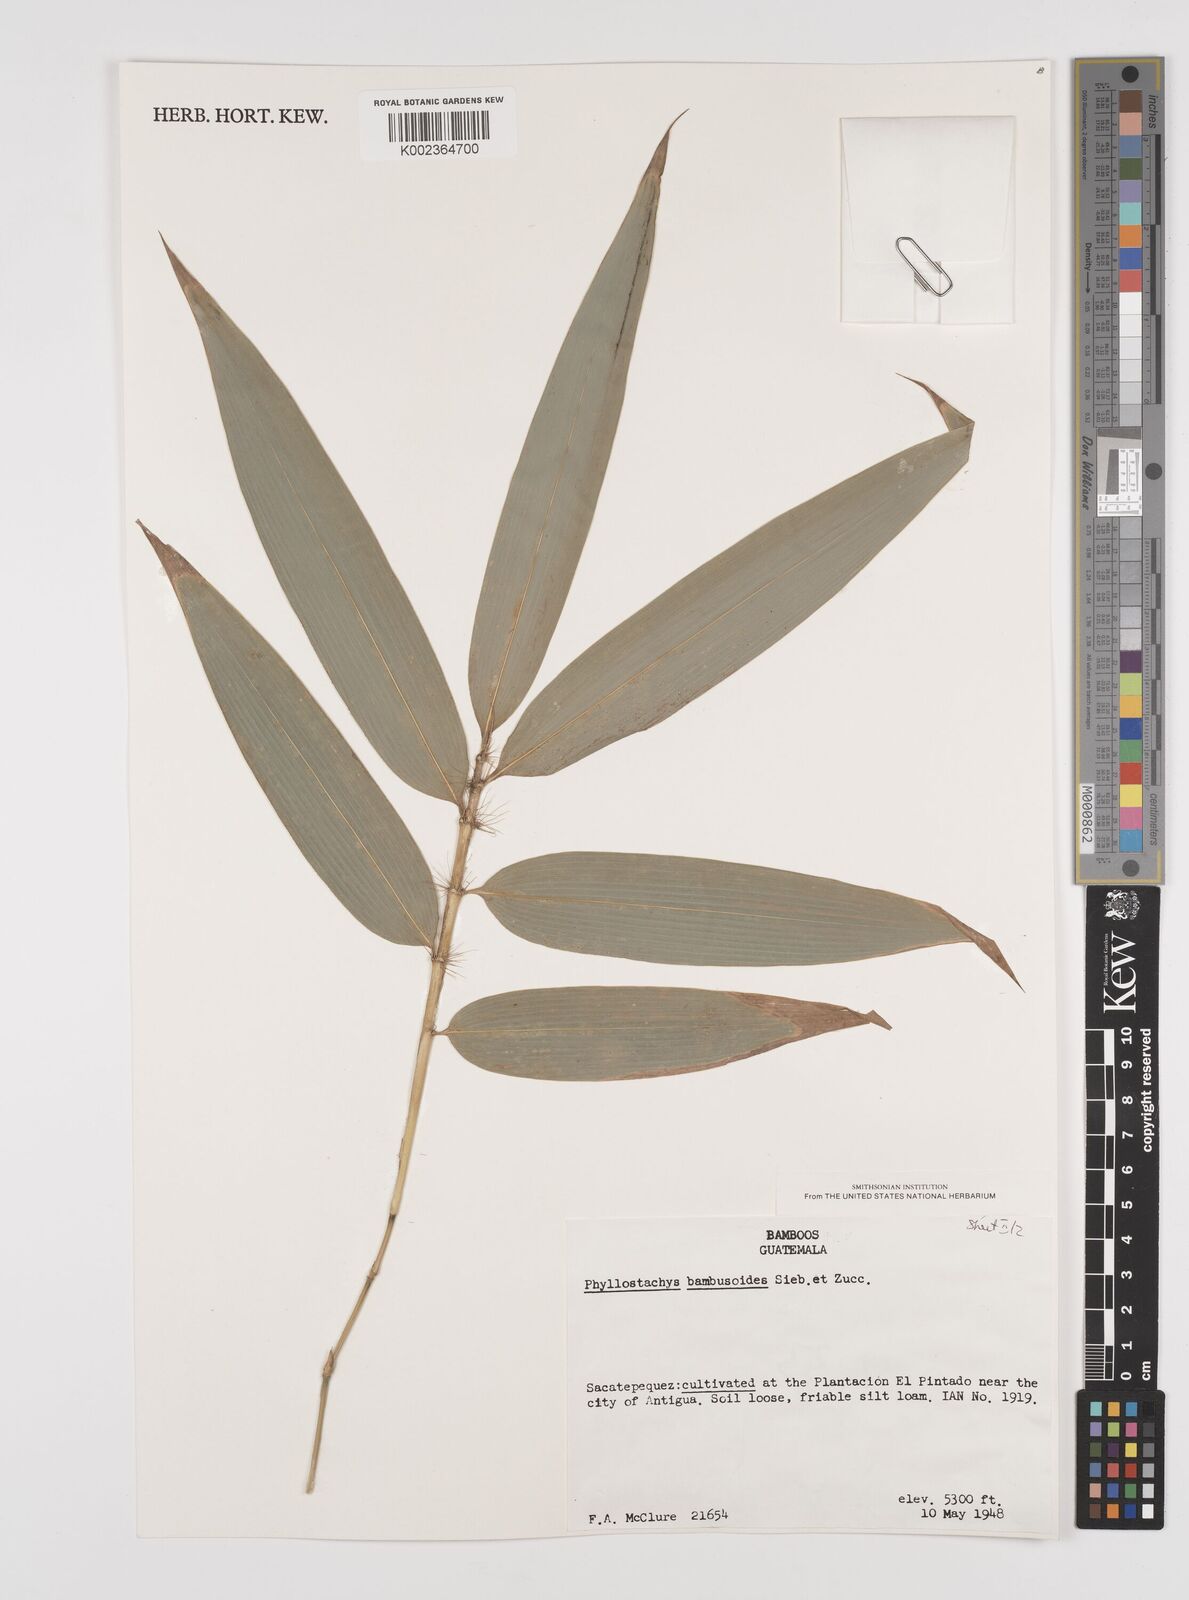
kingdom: Plantae
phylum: Tracheophyta
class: Liliopsida
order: Poales
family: Poaceae
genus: Phyllostachys
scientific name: Phyllostachys reticulata
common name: Bamboo
